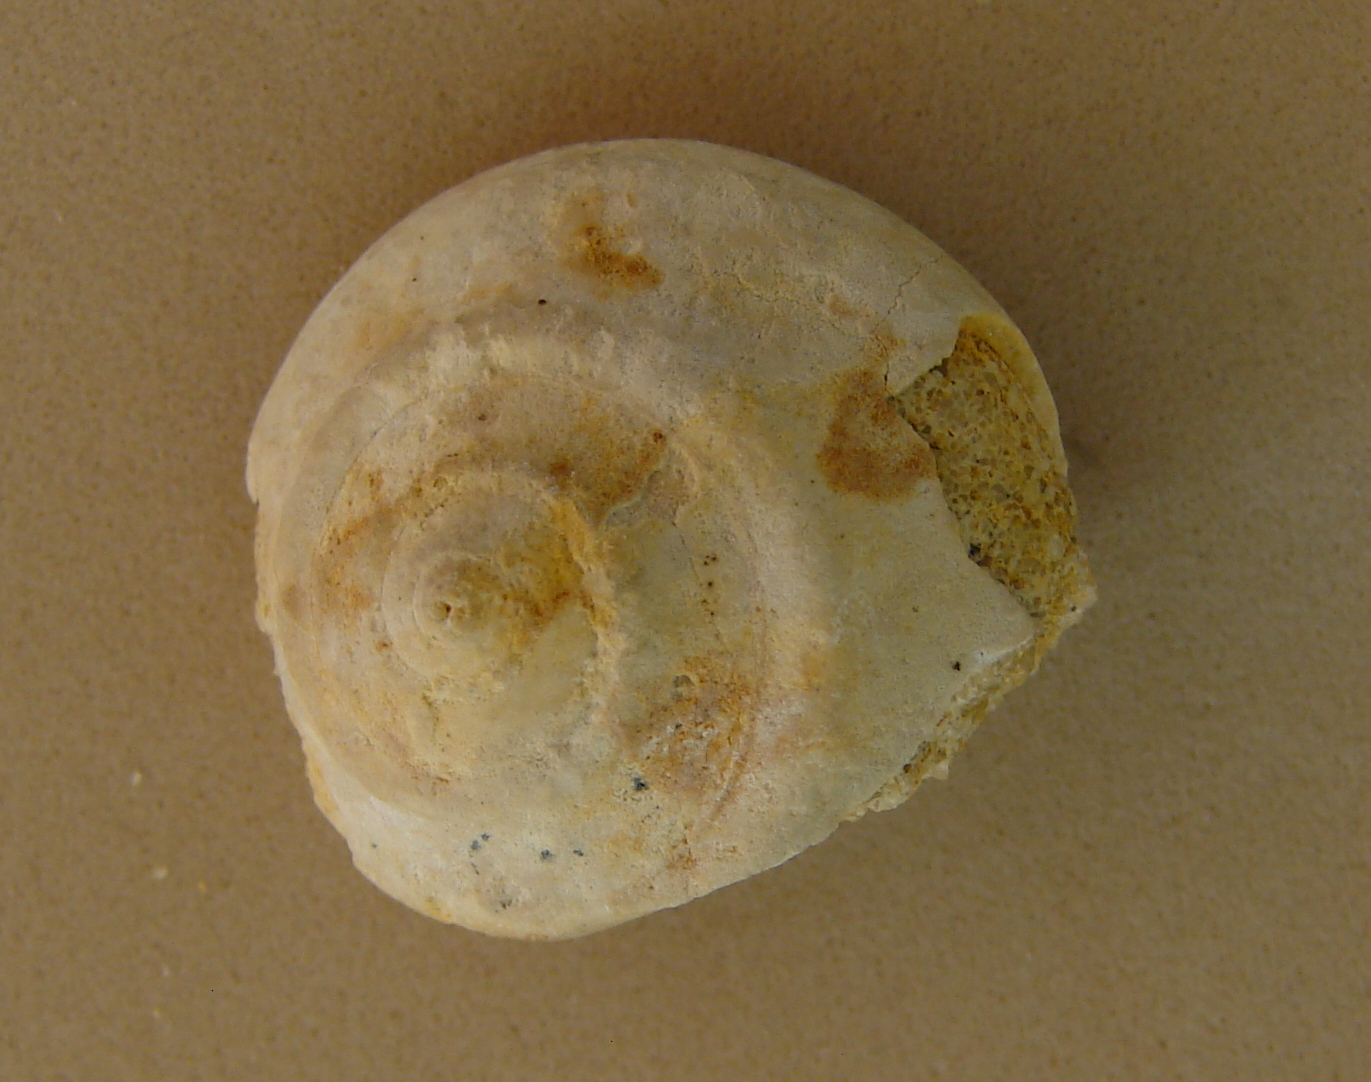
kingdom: Animalia
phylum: Mollusca
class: Gastropoda
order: Pleurotomariida
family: Ptychomphalidae
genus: Ptychomphalus
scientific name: Ptychomphalus Pleurotomaria caepa
